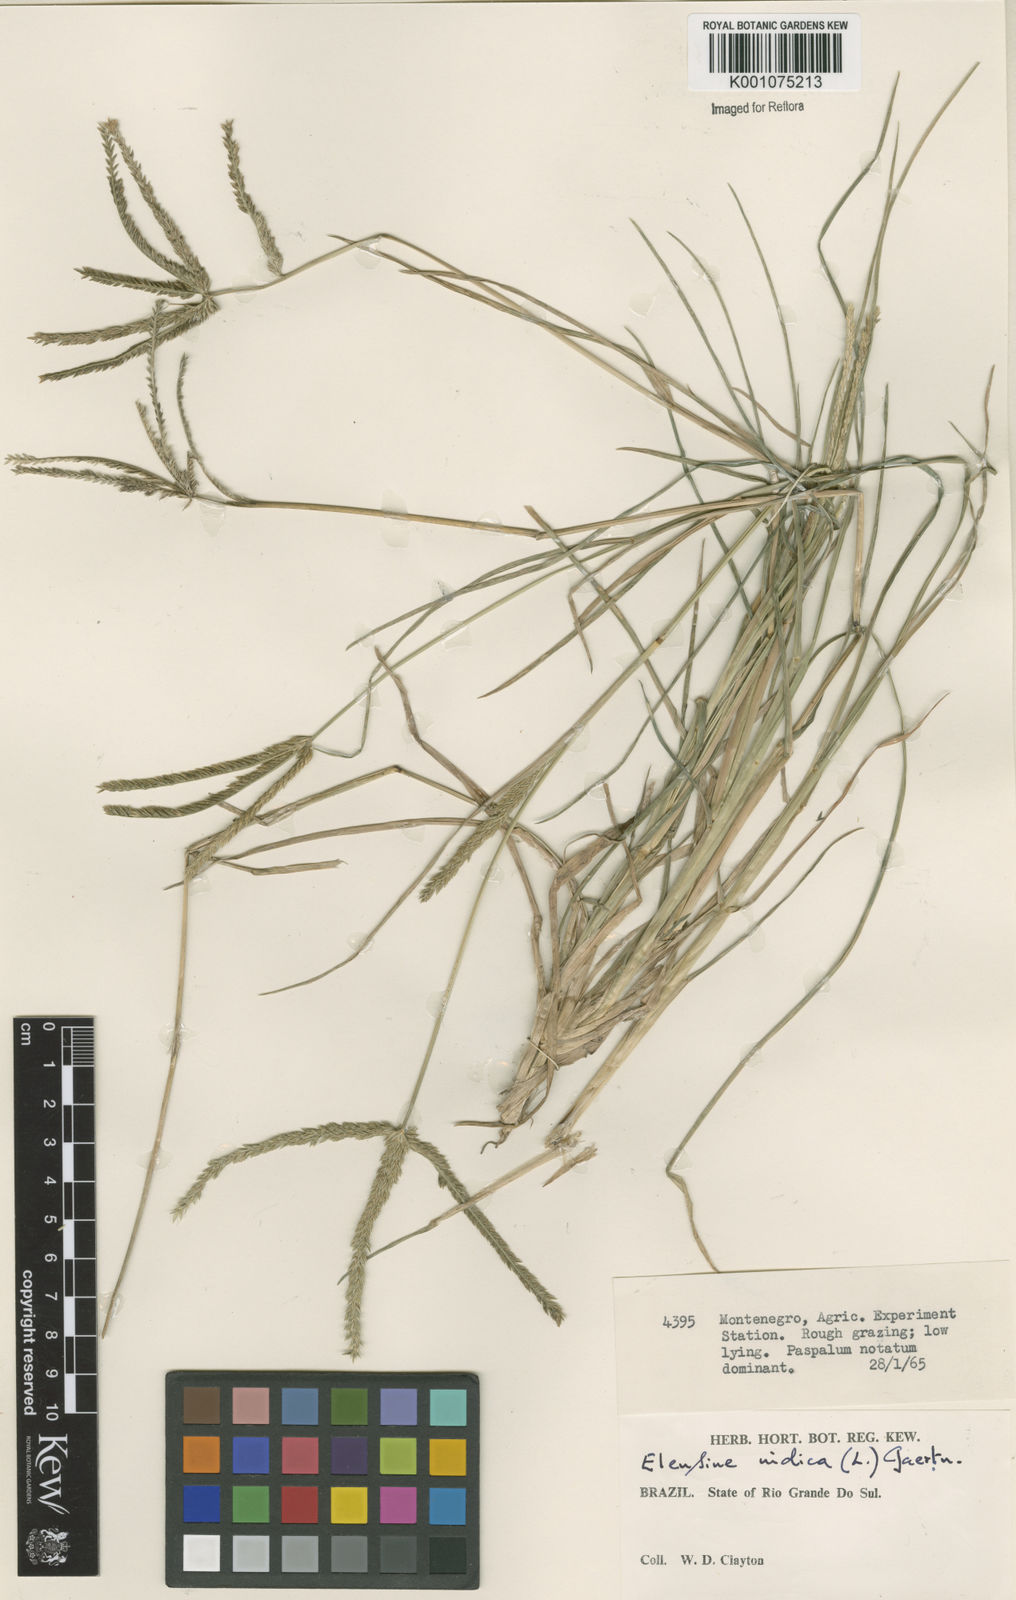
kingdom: Plantae
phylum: Tracheophyta
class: Liliopsida
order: Poales
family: Poaceae
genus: Eleusine
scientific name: Eleusine indica
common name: Yard-grass
